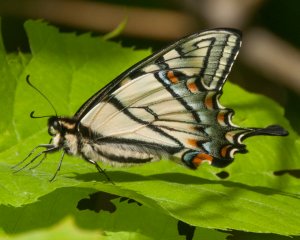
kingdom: Animalia
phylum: Arthropoda
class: Insecta
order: Lepidoptera
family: Papilionidae
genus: Pterourus
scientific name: Pterourus canadensis
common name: Canadian Tiger Swallowtail
